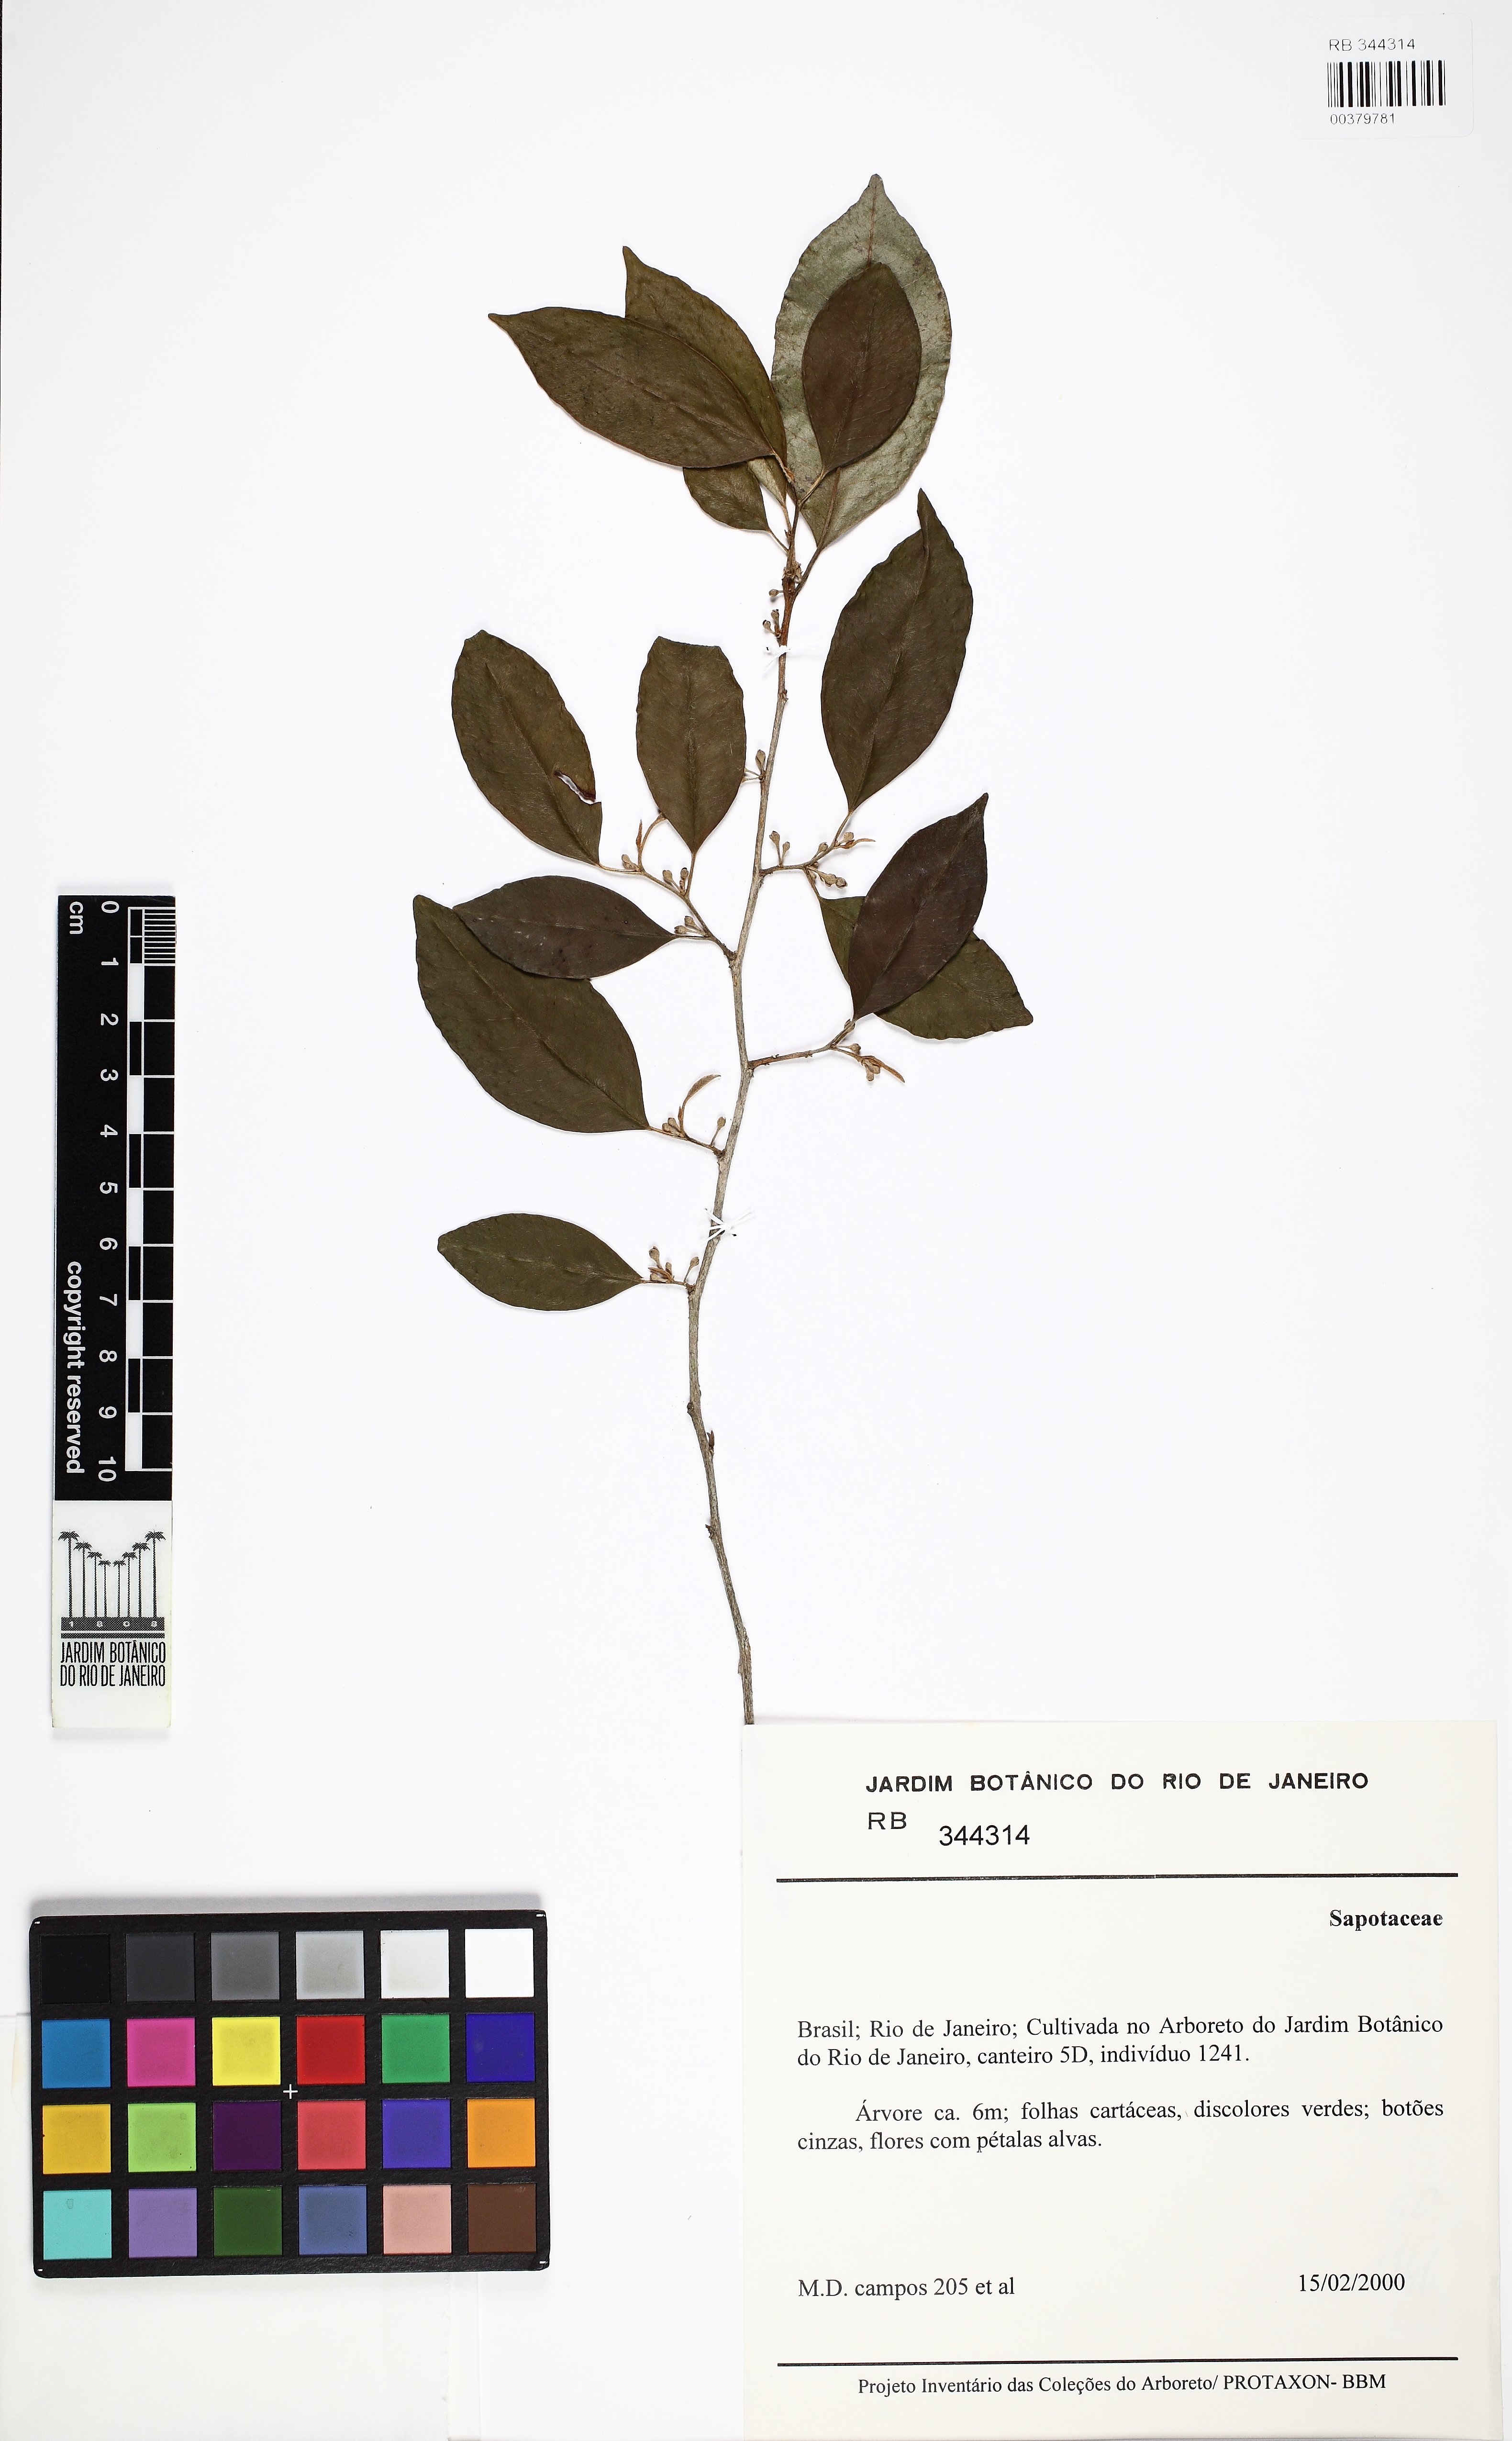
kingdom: Plantae
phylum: Tracheophyta
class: Magnoliopsida
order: Ericales
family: Sapotaceae
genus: Chrysophyllum
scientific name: Chrysophyllum
